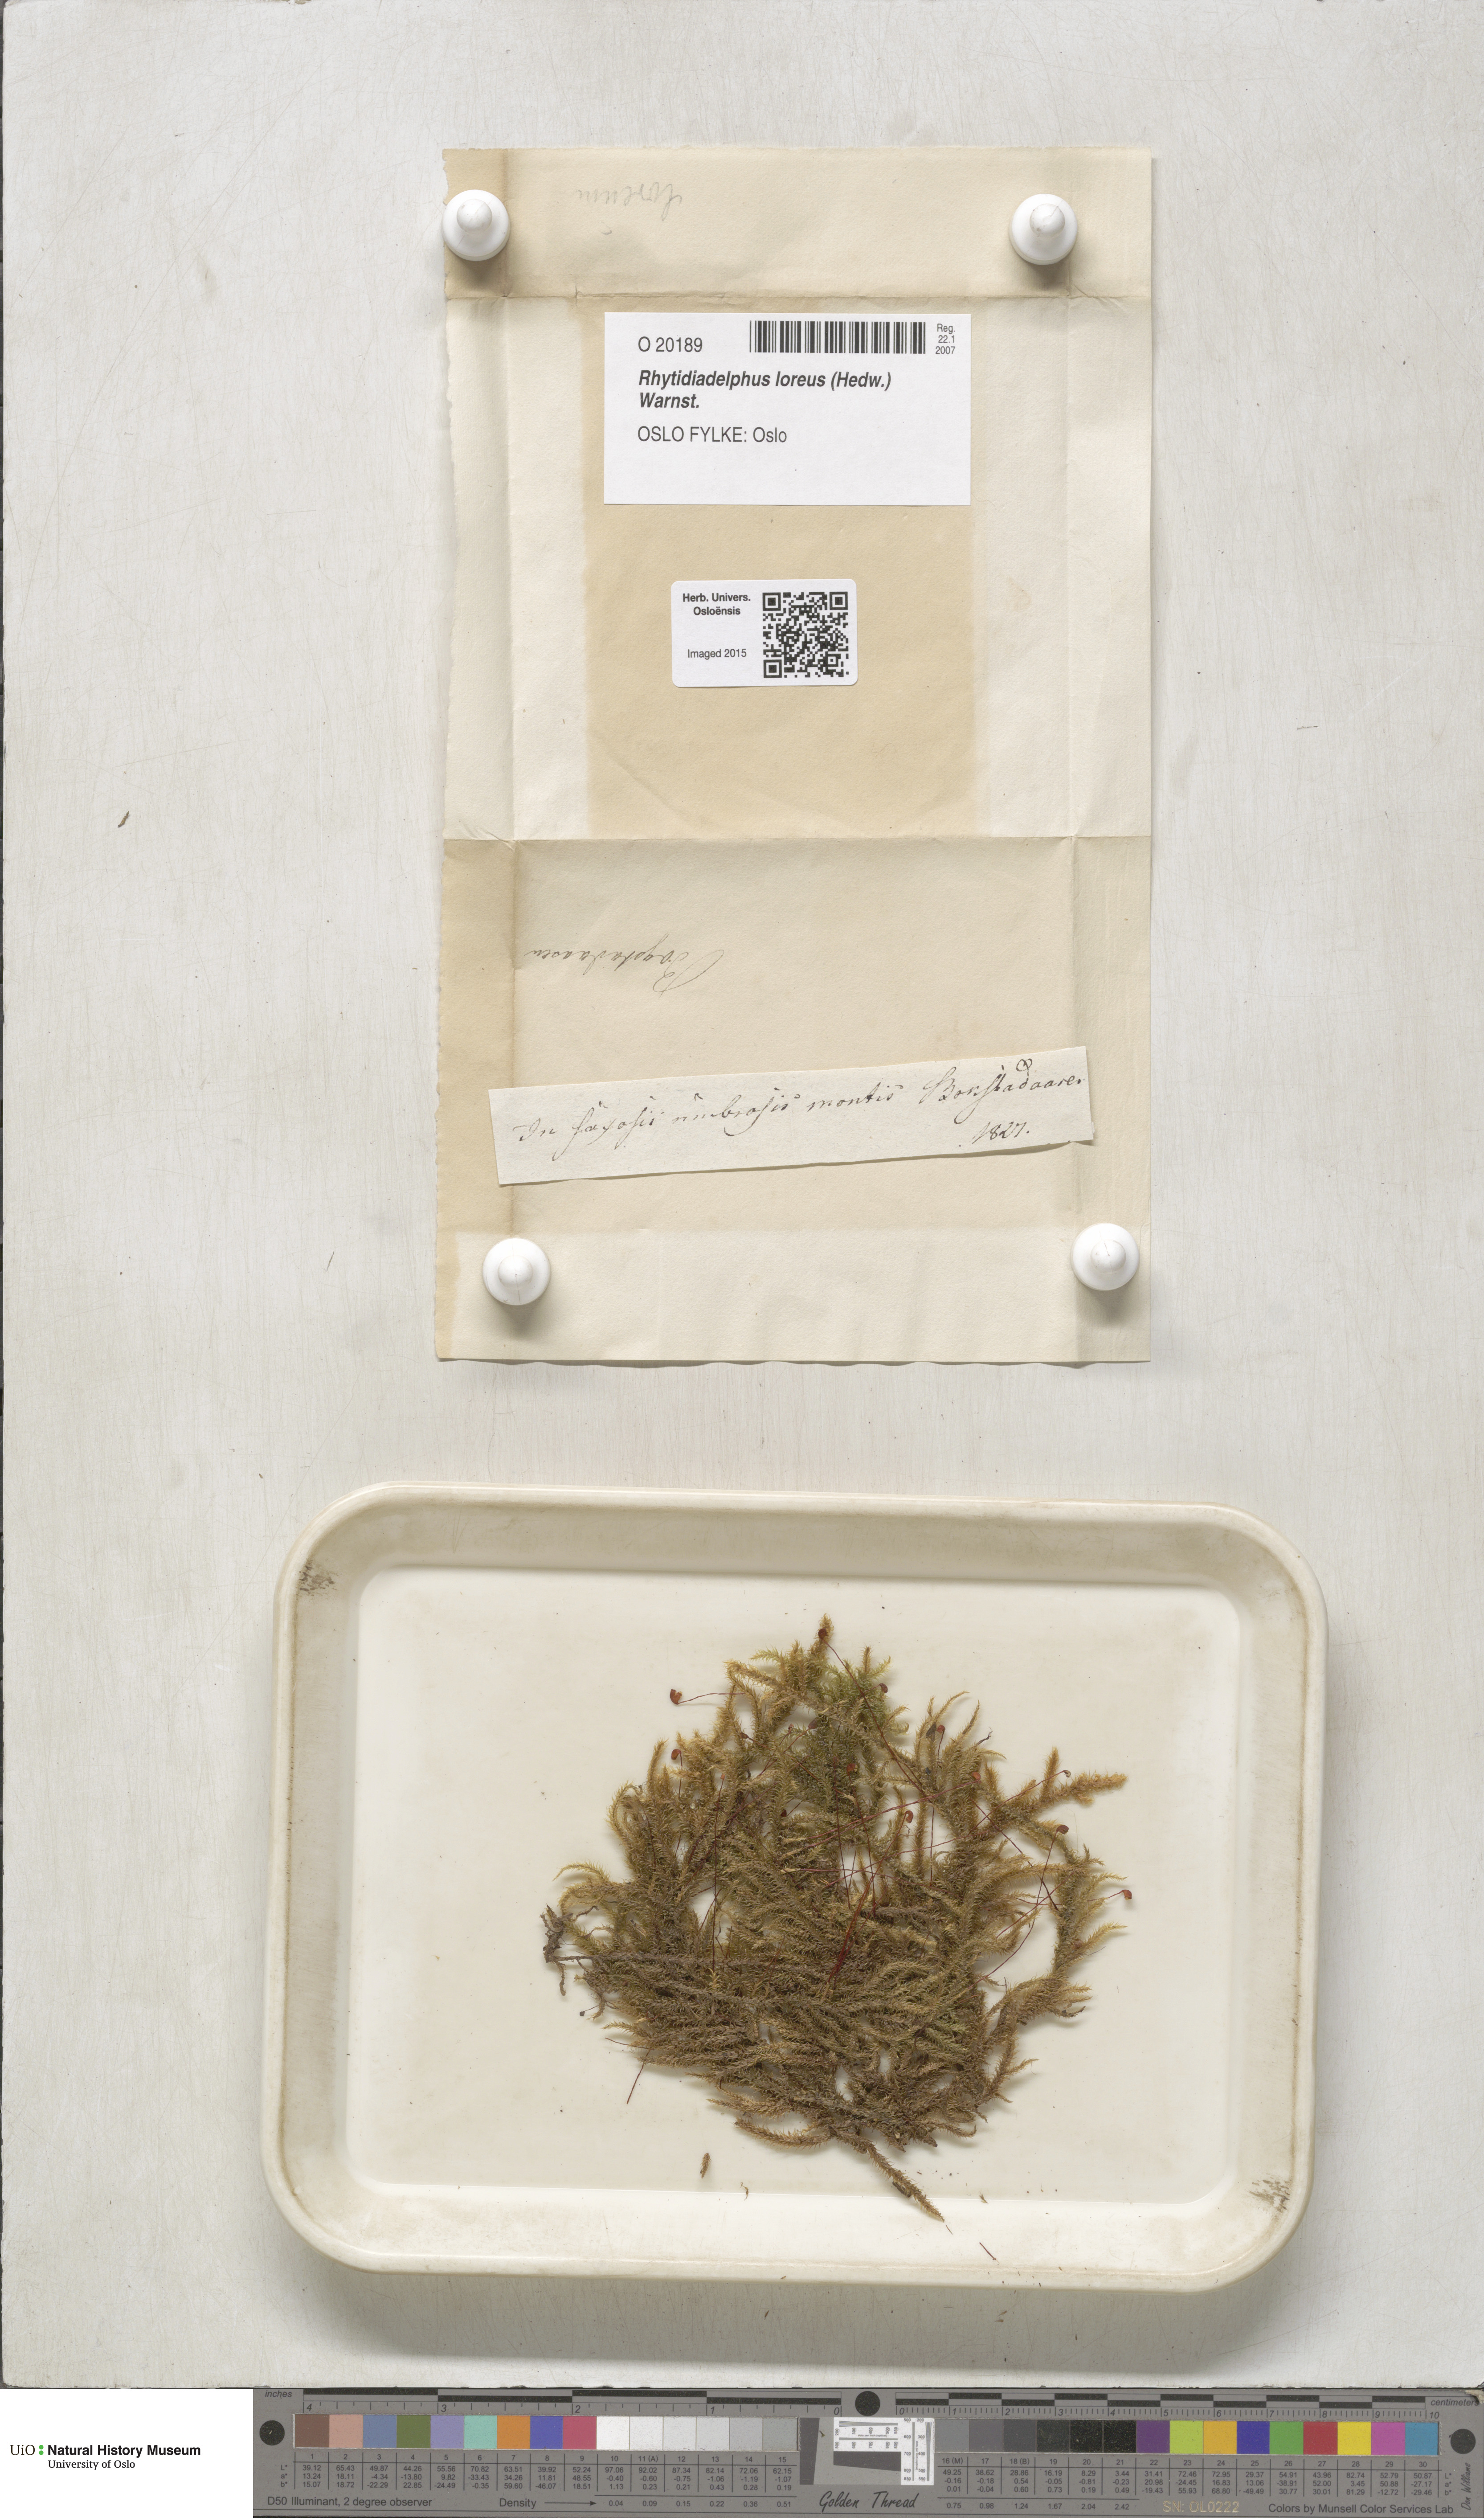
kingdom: Plantae
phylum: Bryophyta
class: Bryopsida
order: Hypnales
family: Hylocomiaceae
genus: Rhytidiadelphus
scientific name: Rhytidiadelphus loreus
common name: Lanky moss
